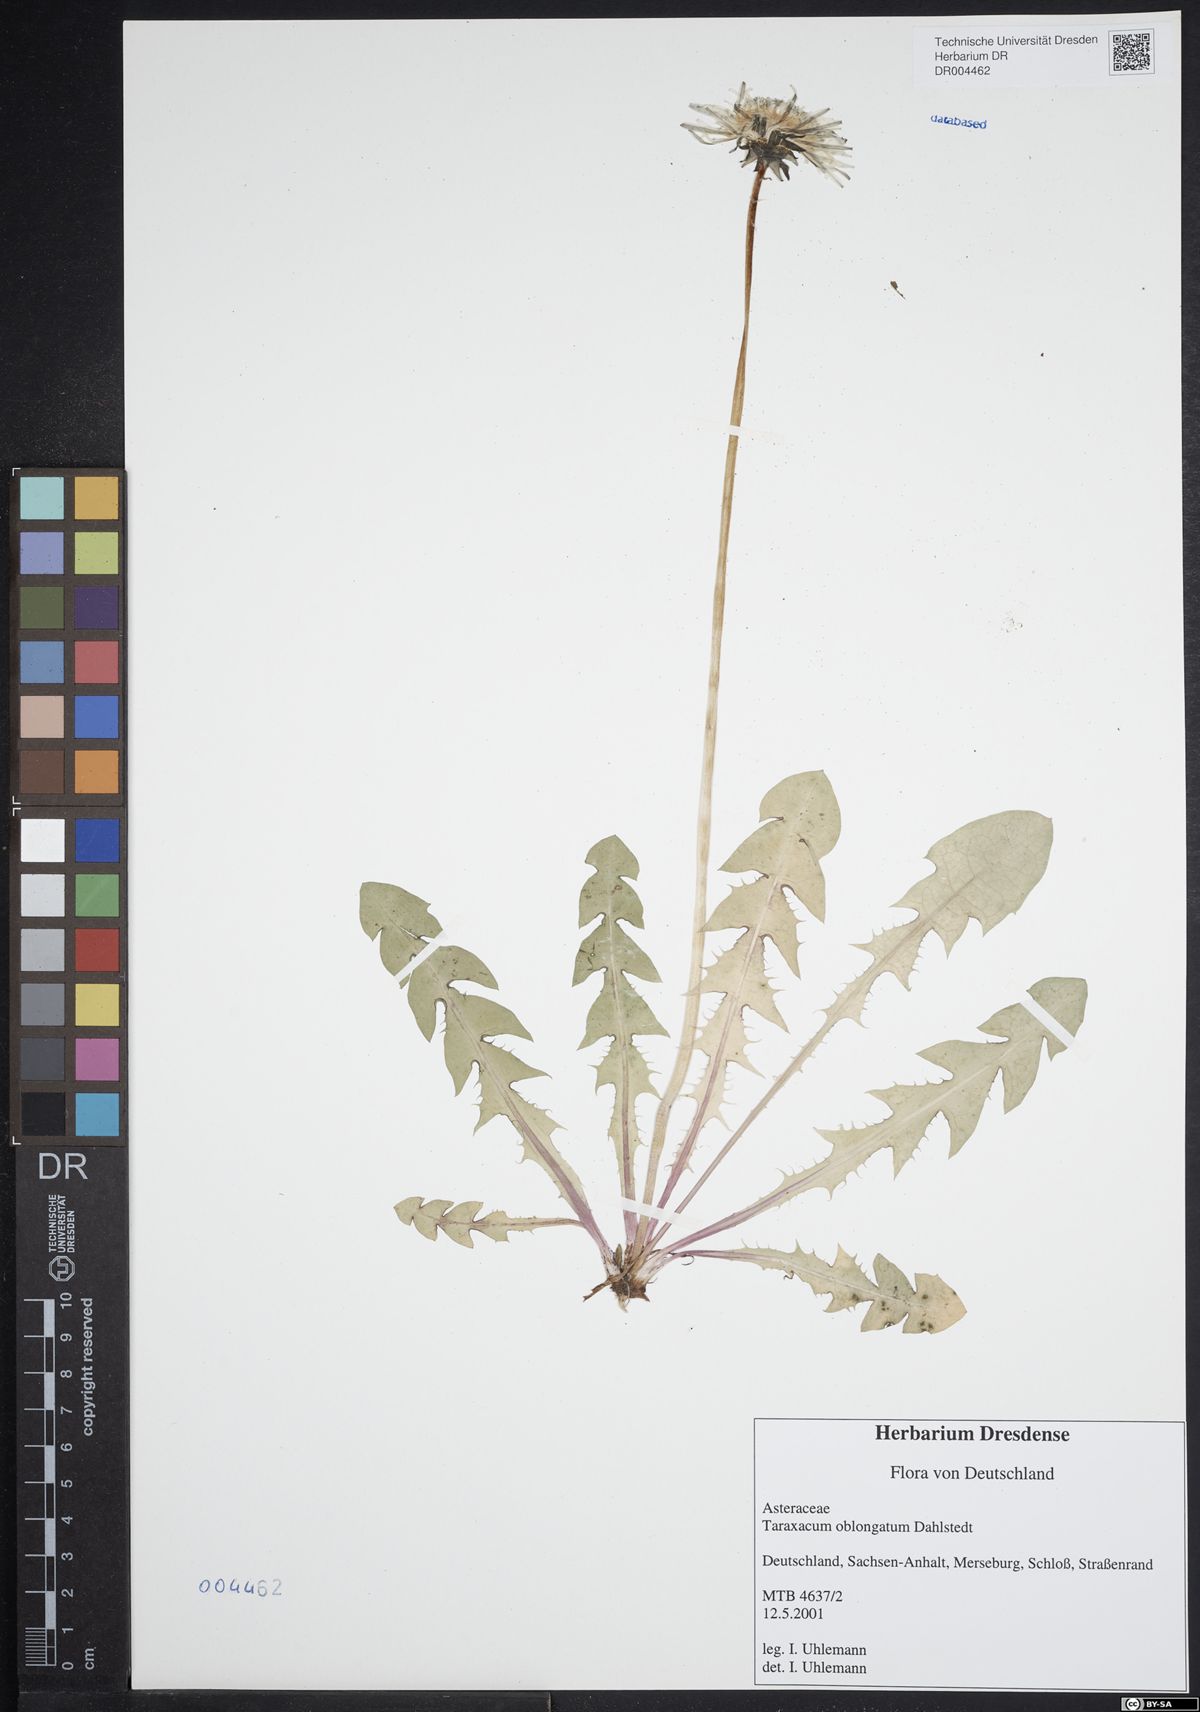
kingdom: Plantae
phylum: Tracheophyta
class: Magnoliopsida
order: Asterales
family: Asteraceae
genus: Taraxacum
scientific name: Taraxacum oblongatum
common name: Oblong-leaved dandelion
